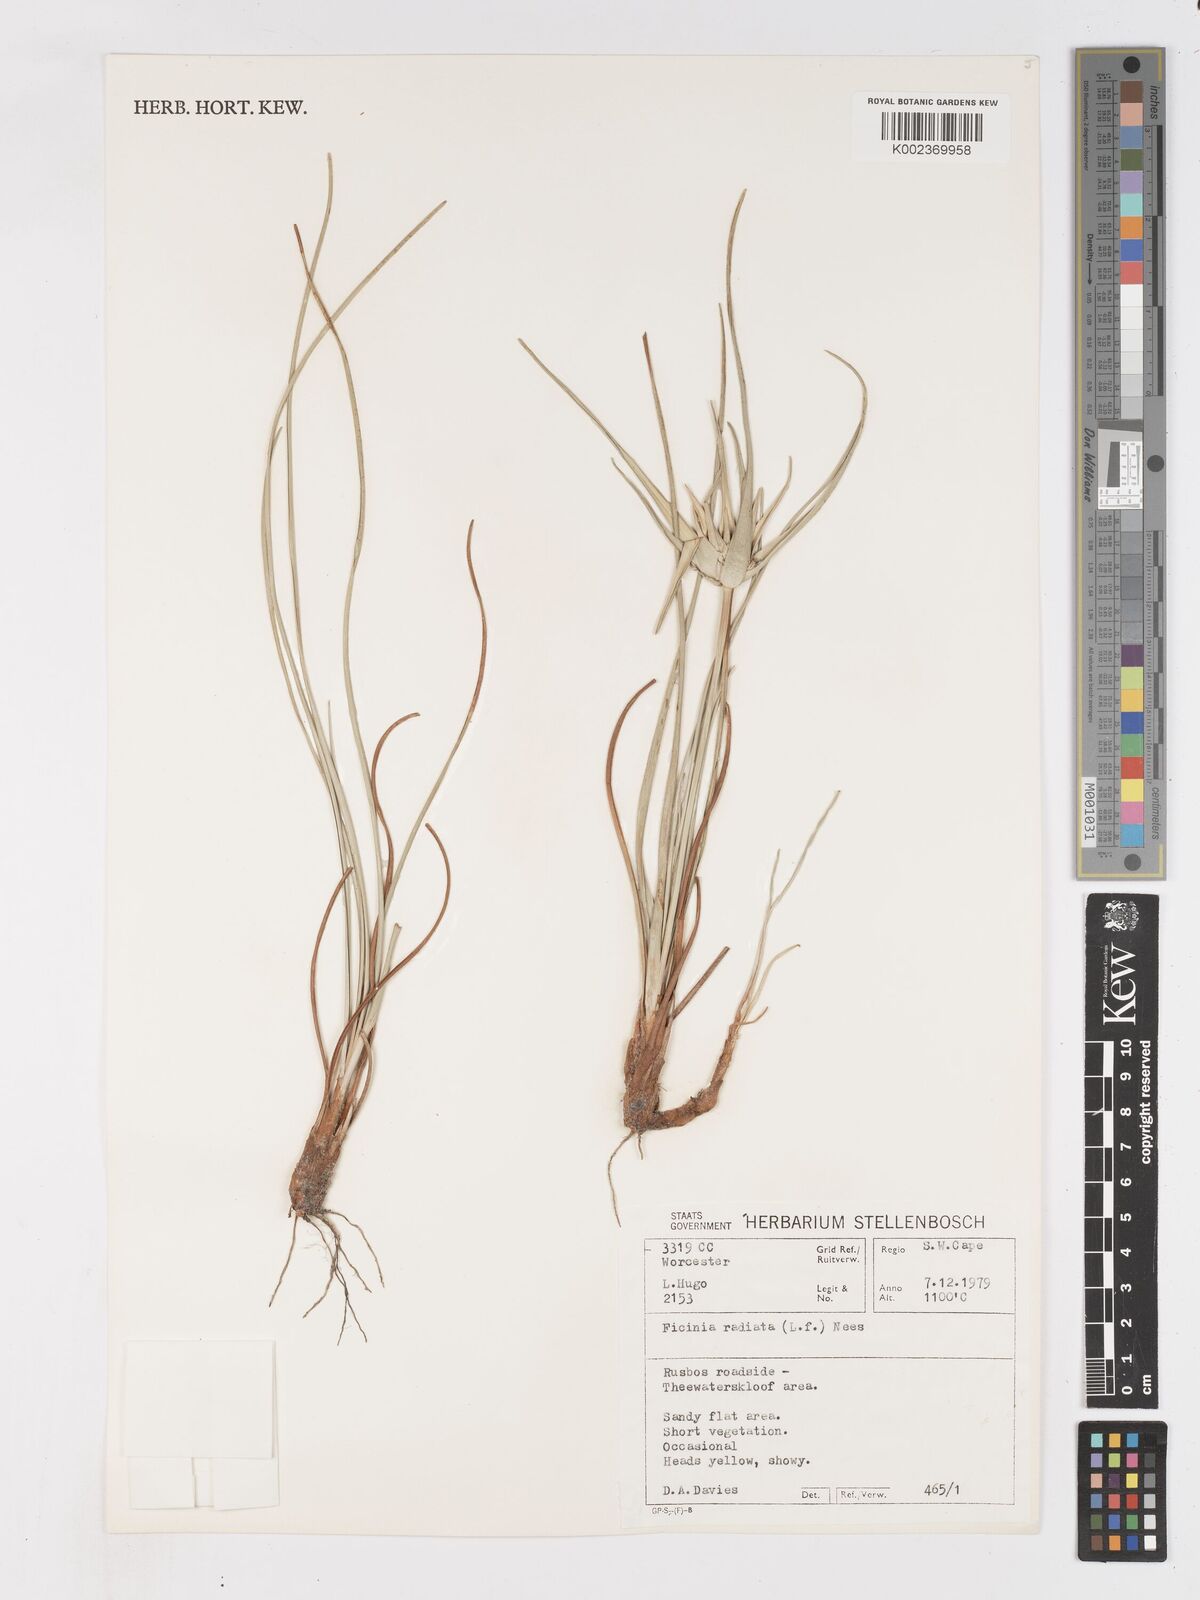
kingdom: Plantae
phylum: Tracheophyta
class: Liliopsida
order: Poales
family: Cyperaceae
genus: Ficinia
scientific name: Ficinia radiata
